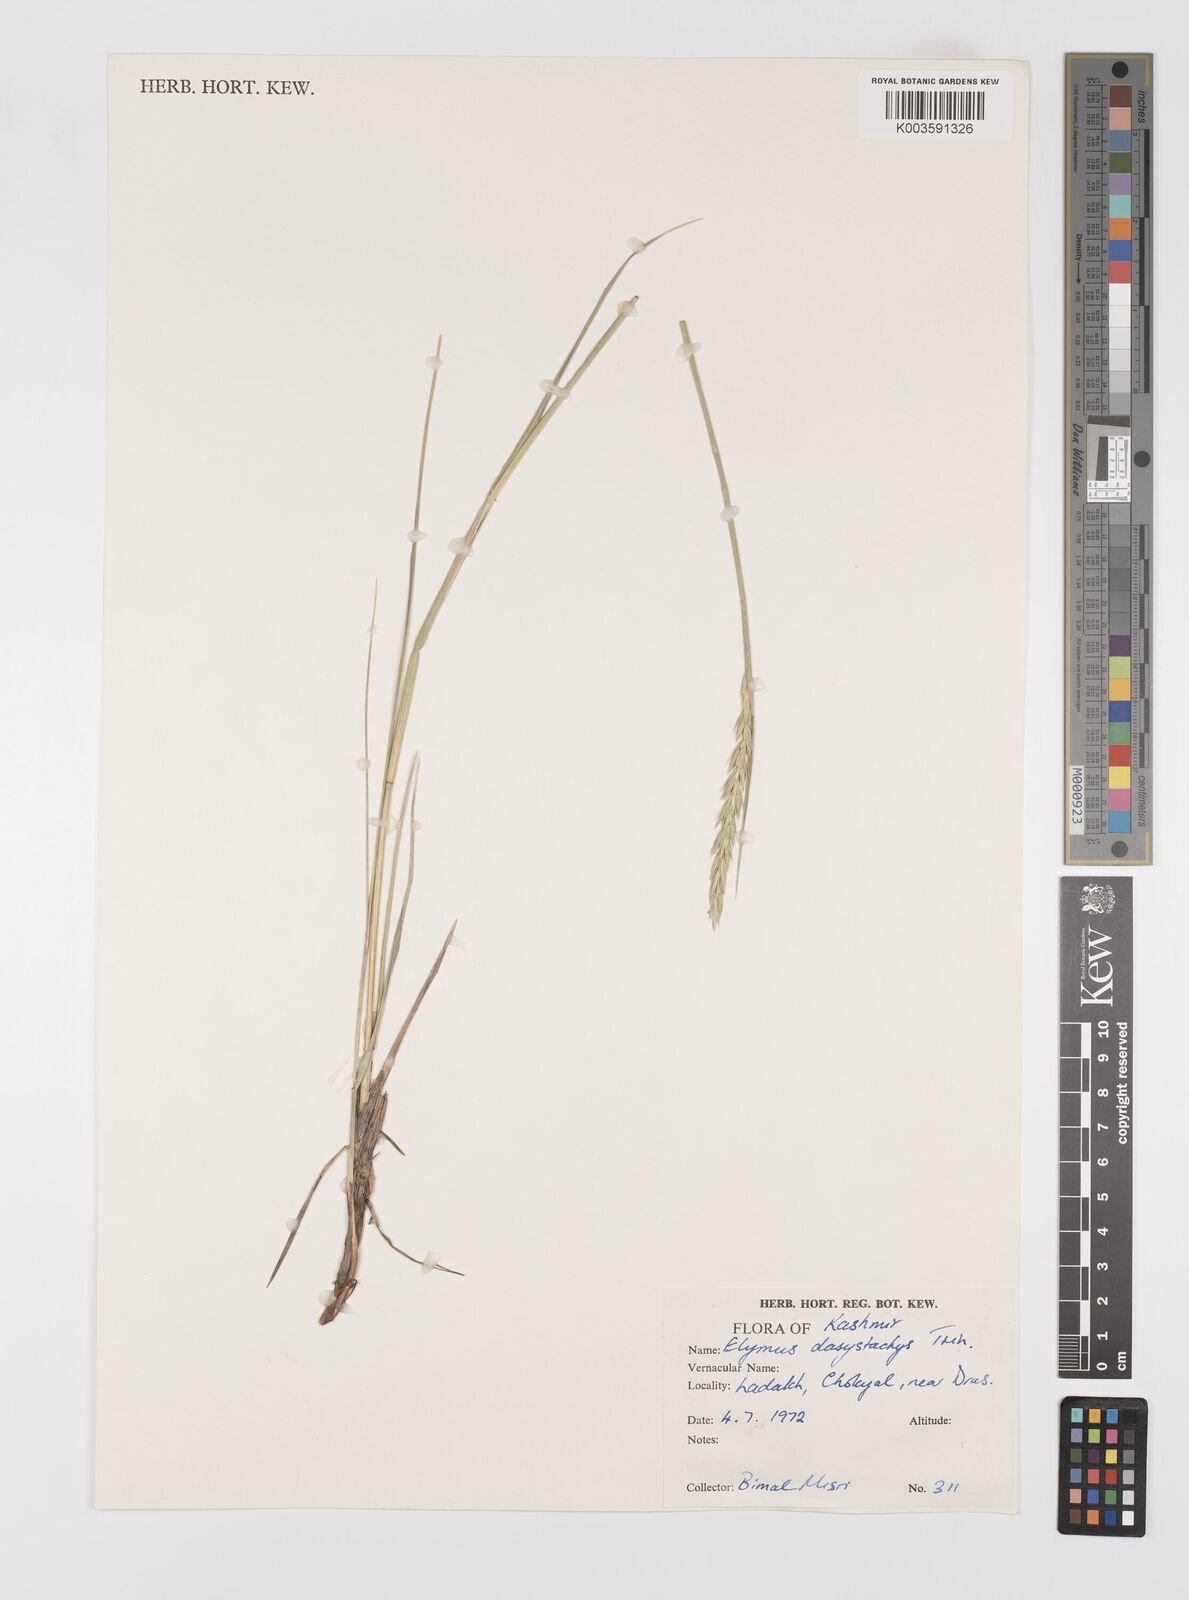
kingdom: Plantae
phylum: Tracheophyta
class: Liliopsida
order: Poales
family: Poaceae
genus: Leymus
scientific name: Leymus secalinus
